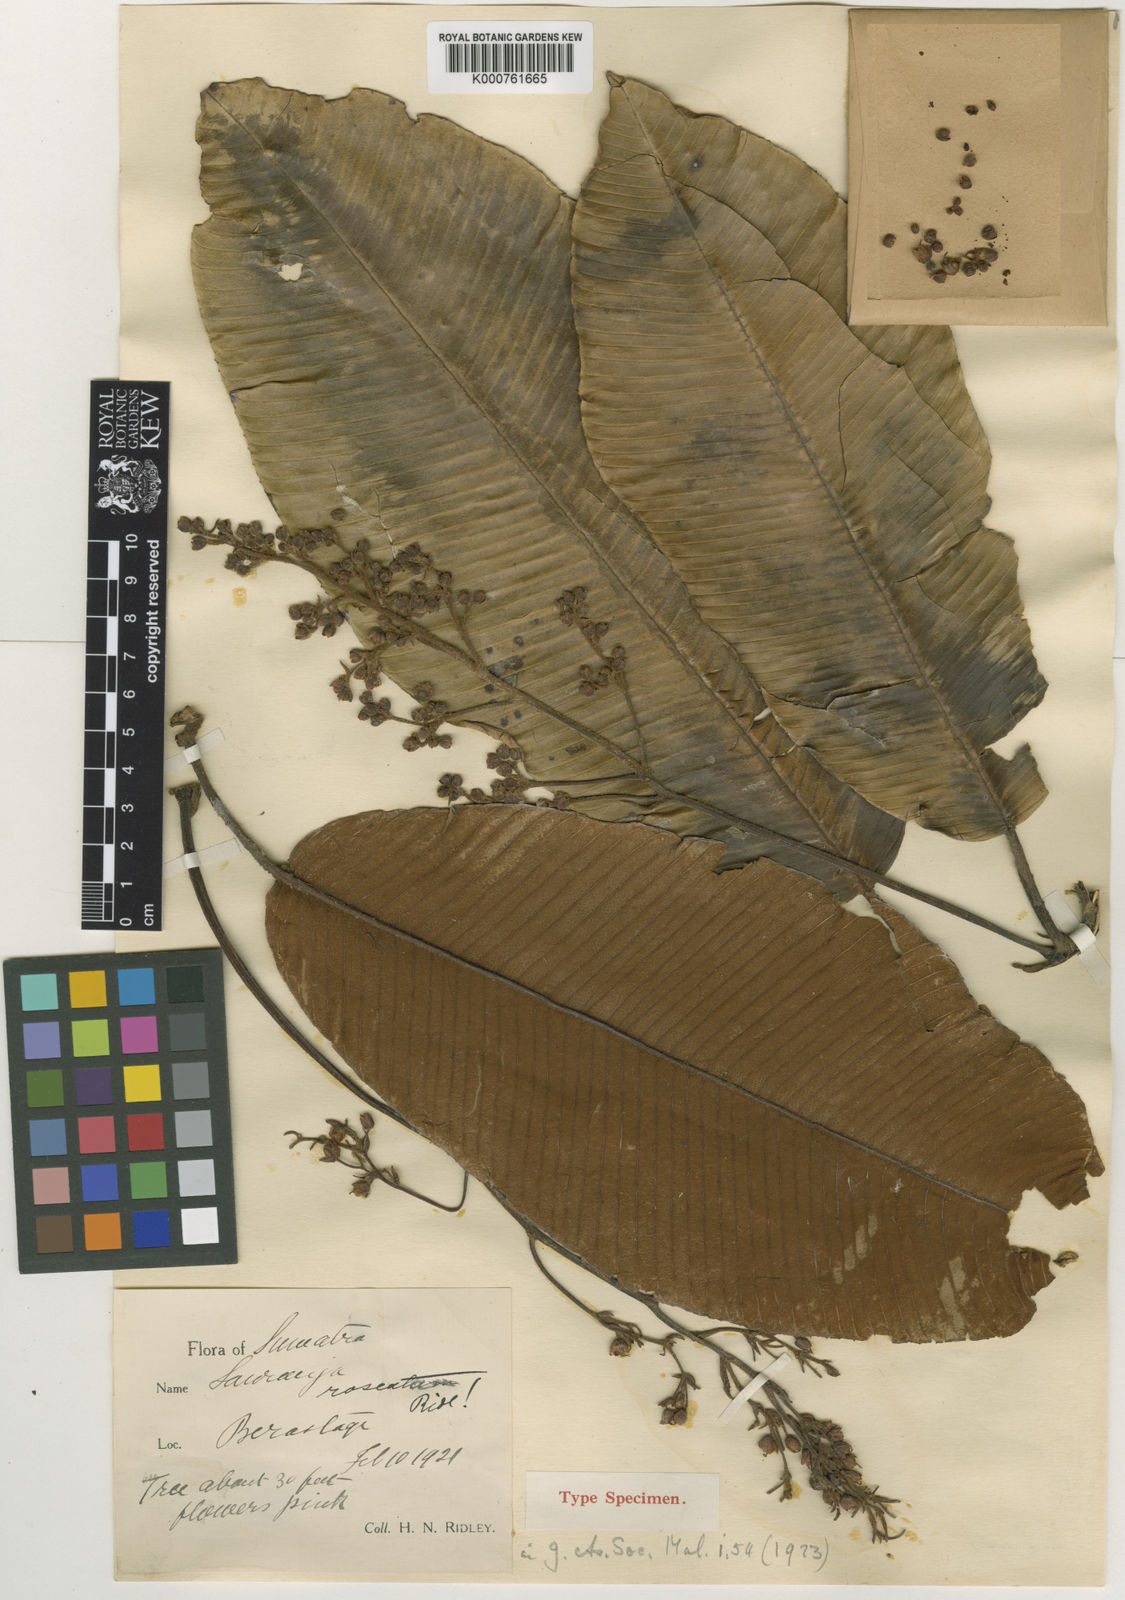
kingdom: Plantae
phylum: Tracheophyta
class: Magnoliopsida
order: Ericales
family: Actinidiaceae
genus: Saurauia
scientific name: Saurauia
